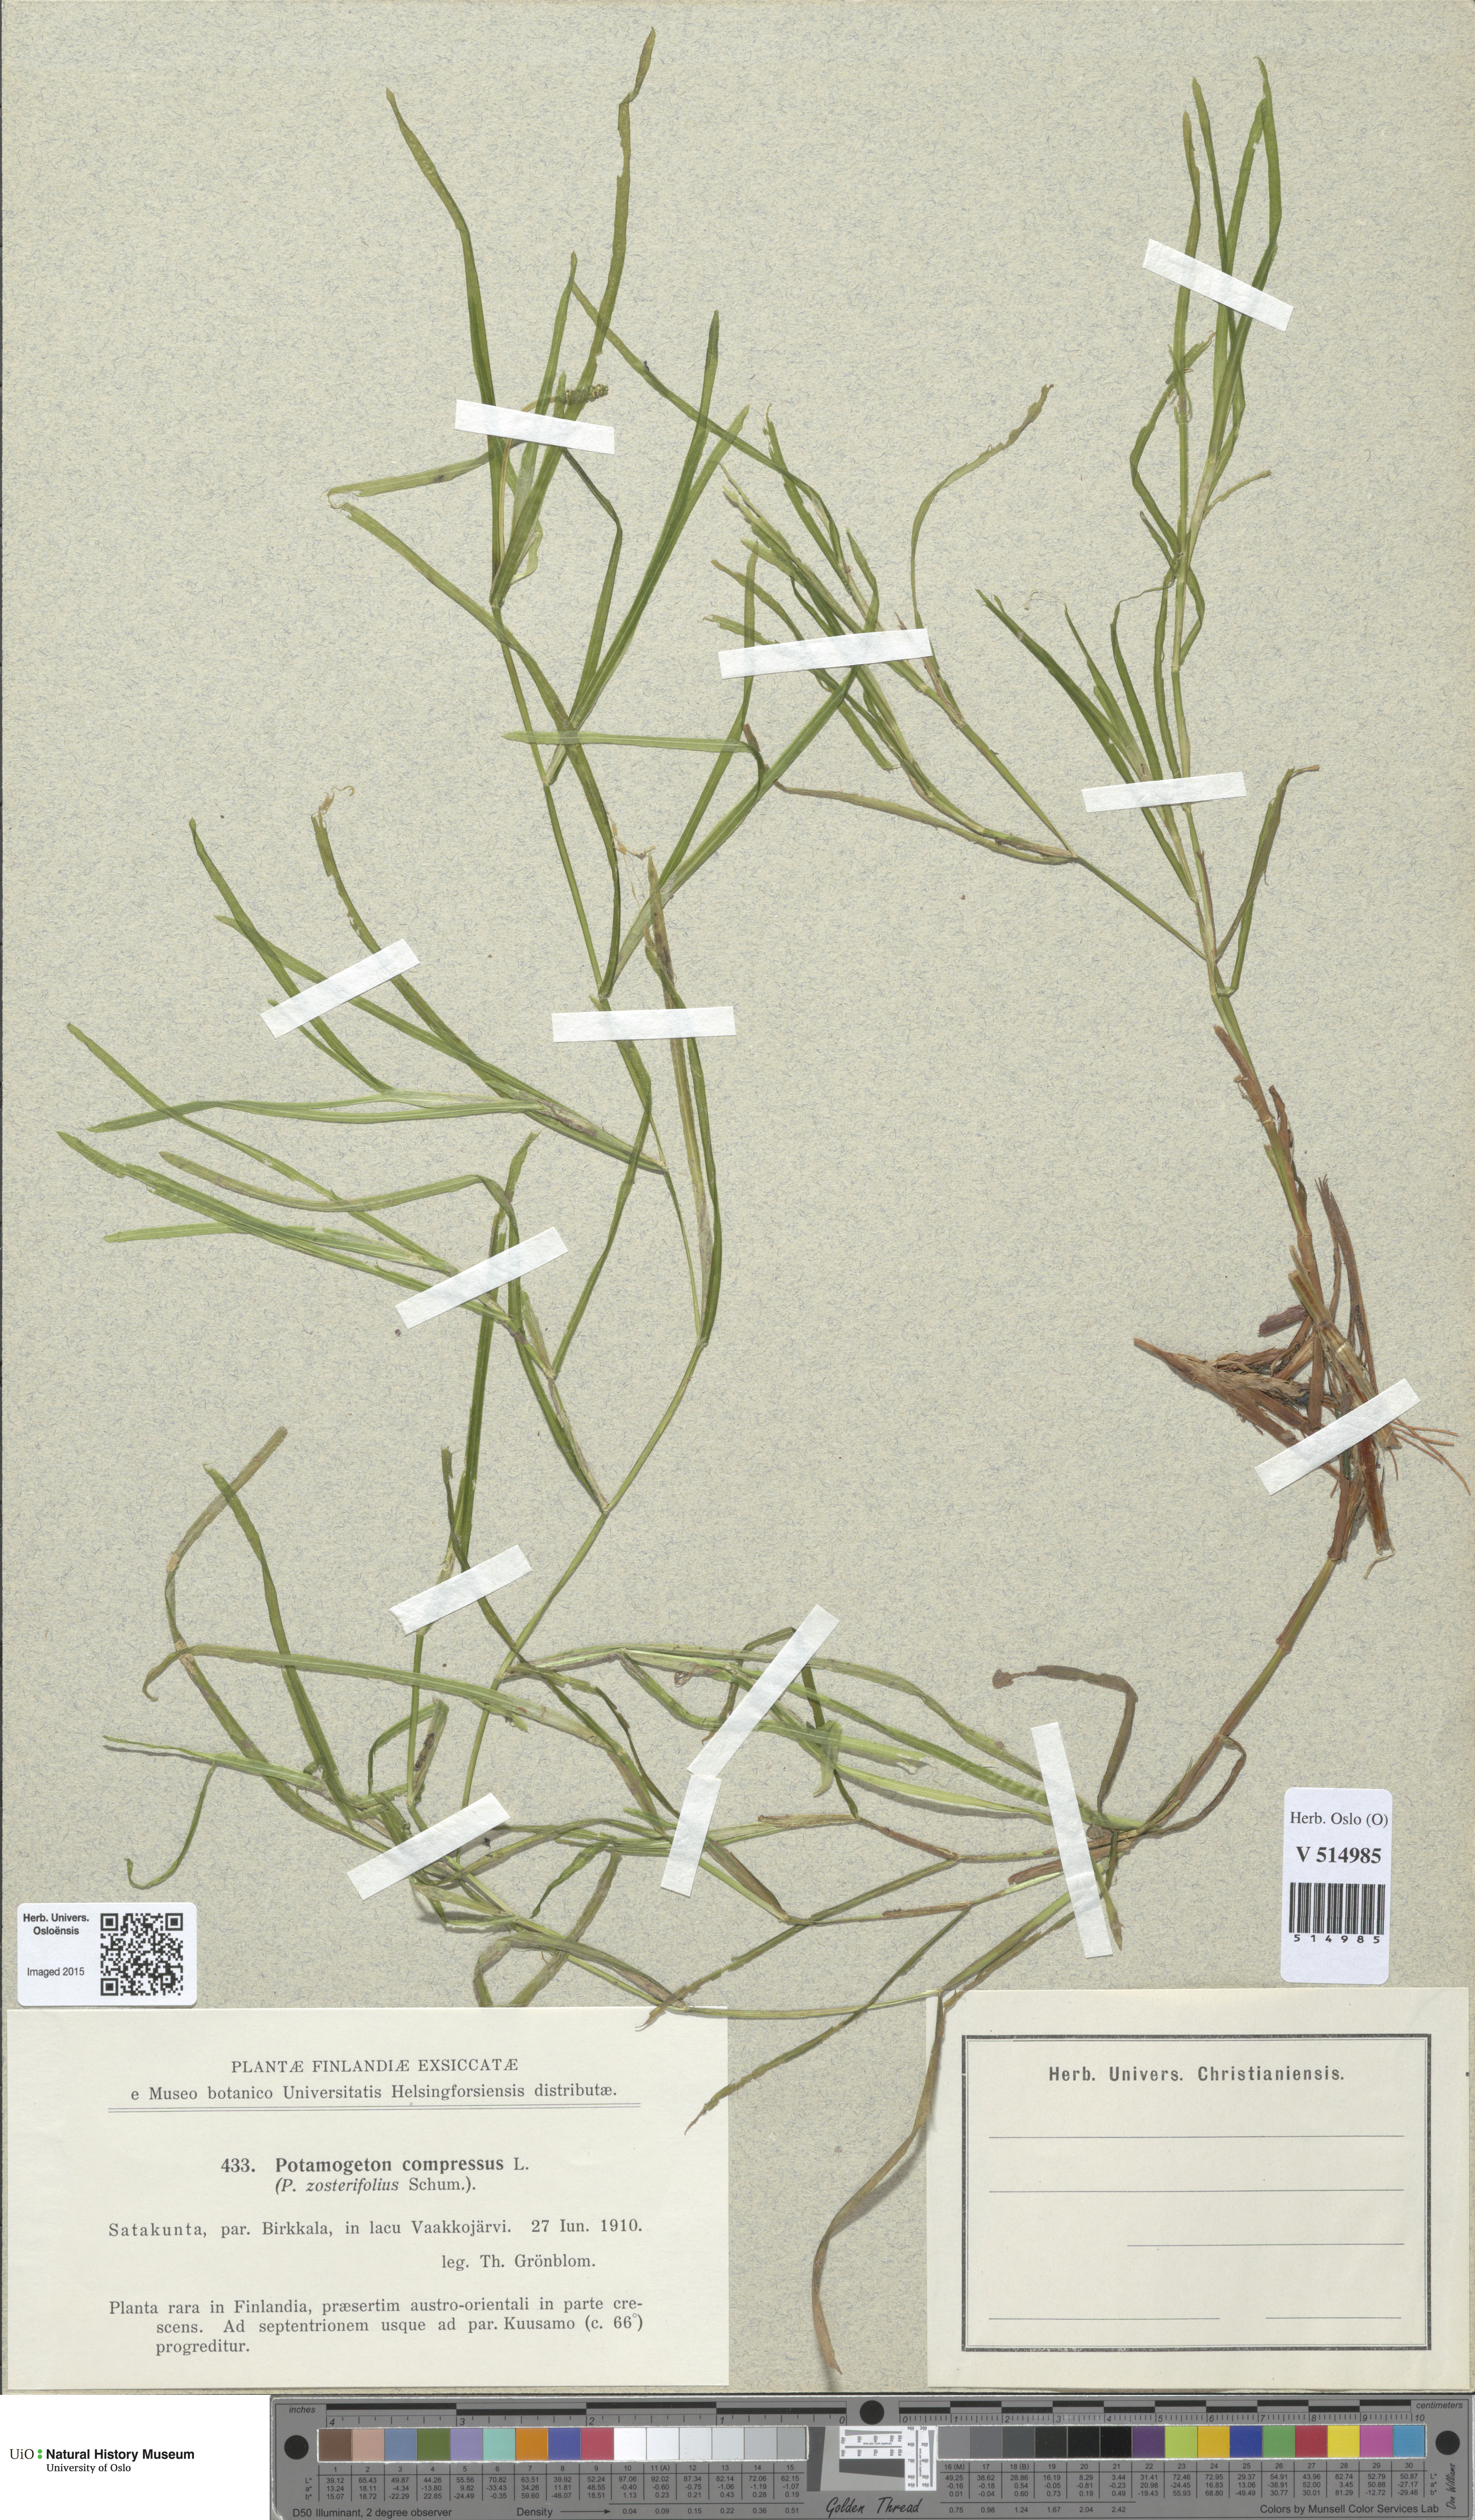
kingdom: Plantae
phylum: Tracheophyta
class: Liliopsida
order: Alismatales
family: Potamogetonaceae
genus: Potamogeton
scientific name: Potamogeton compressus
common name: Grass-wrack pondweed
